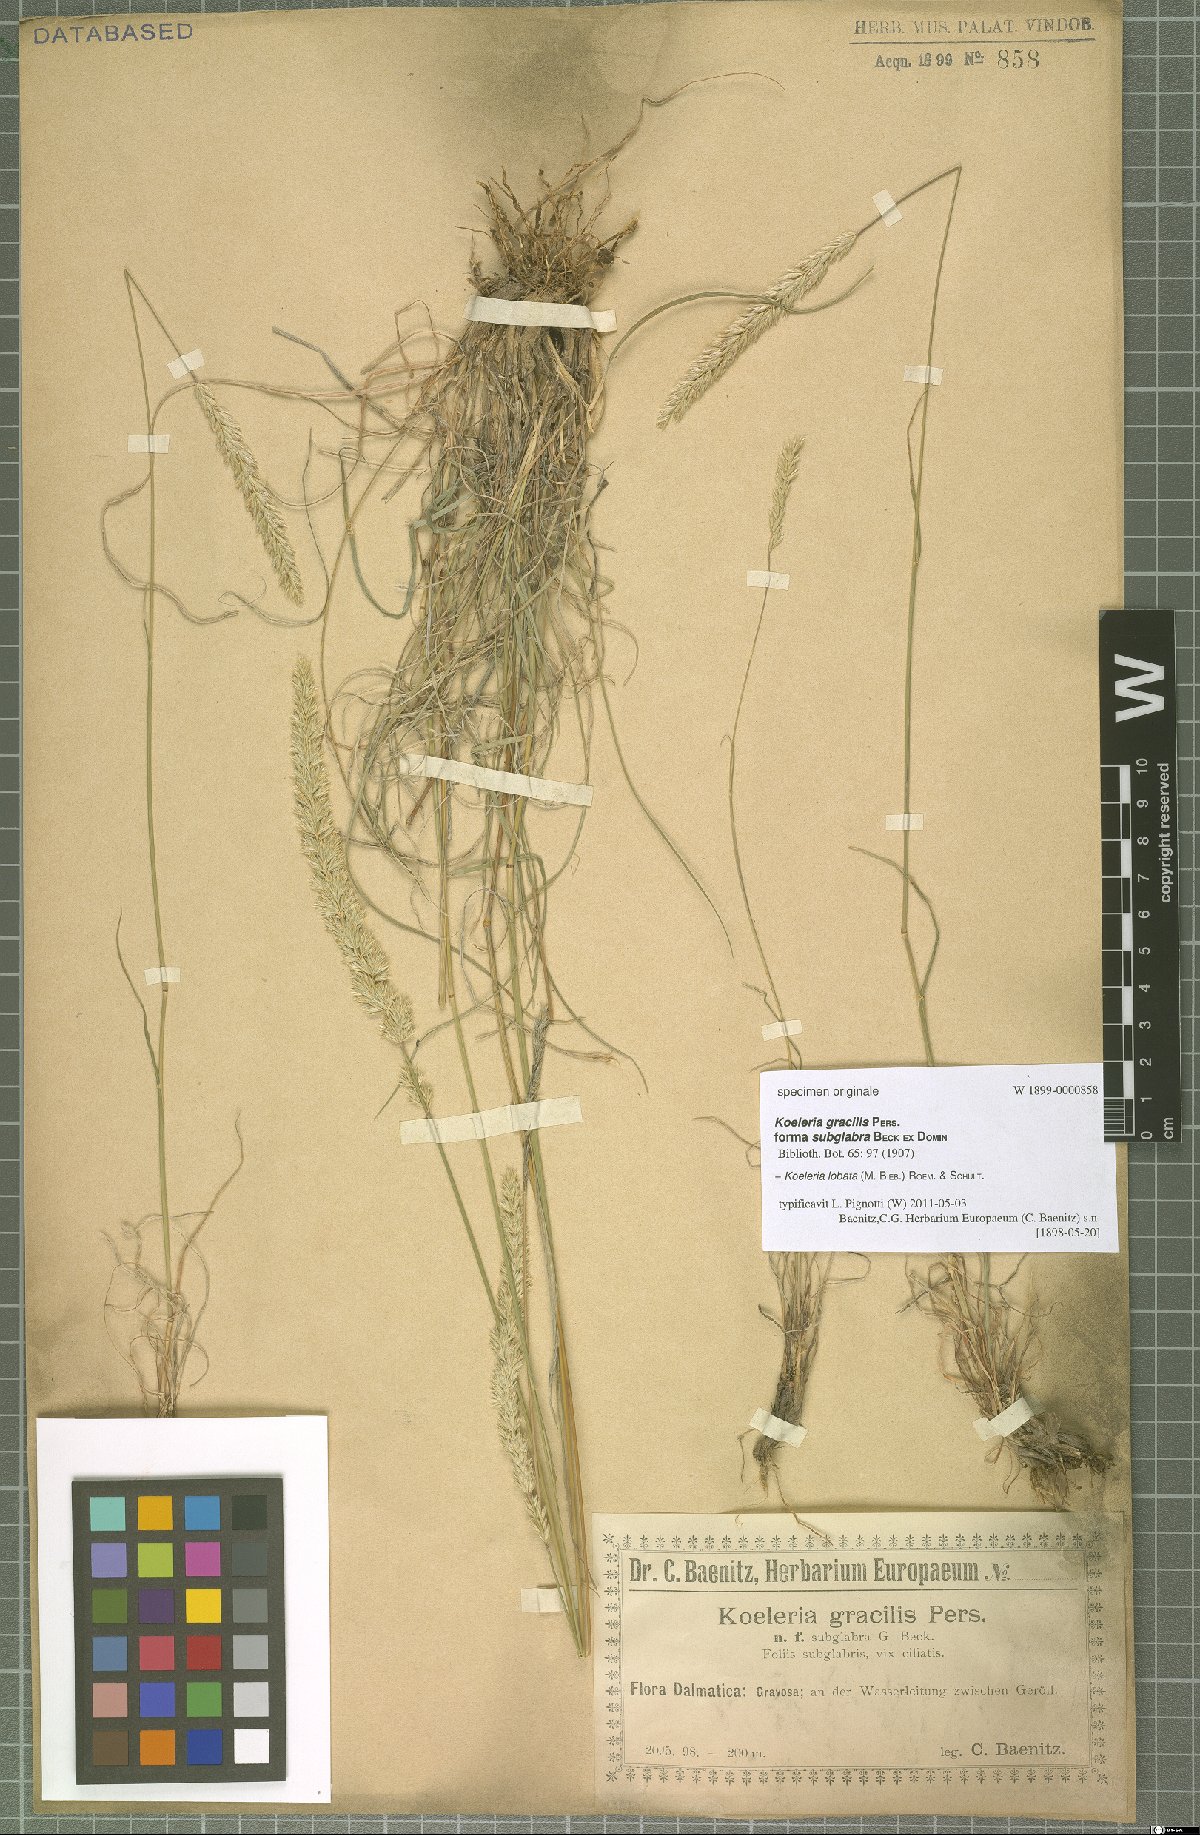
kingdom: Plantae
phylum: Tracheophyta
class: Liliopsida
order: Poales
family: Poaceae
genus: Koeleria
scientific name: Koeleria brevis
